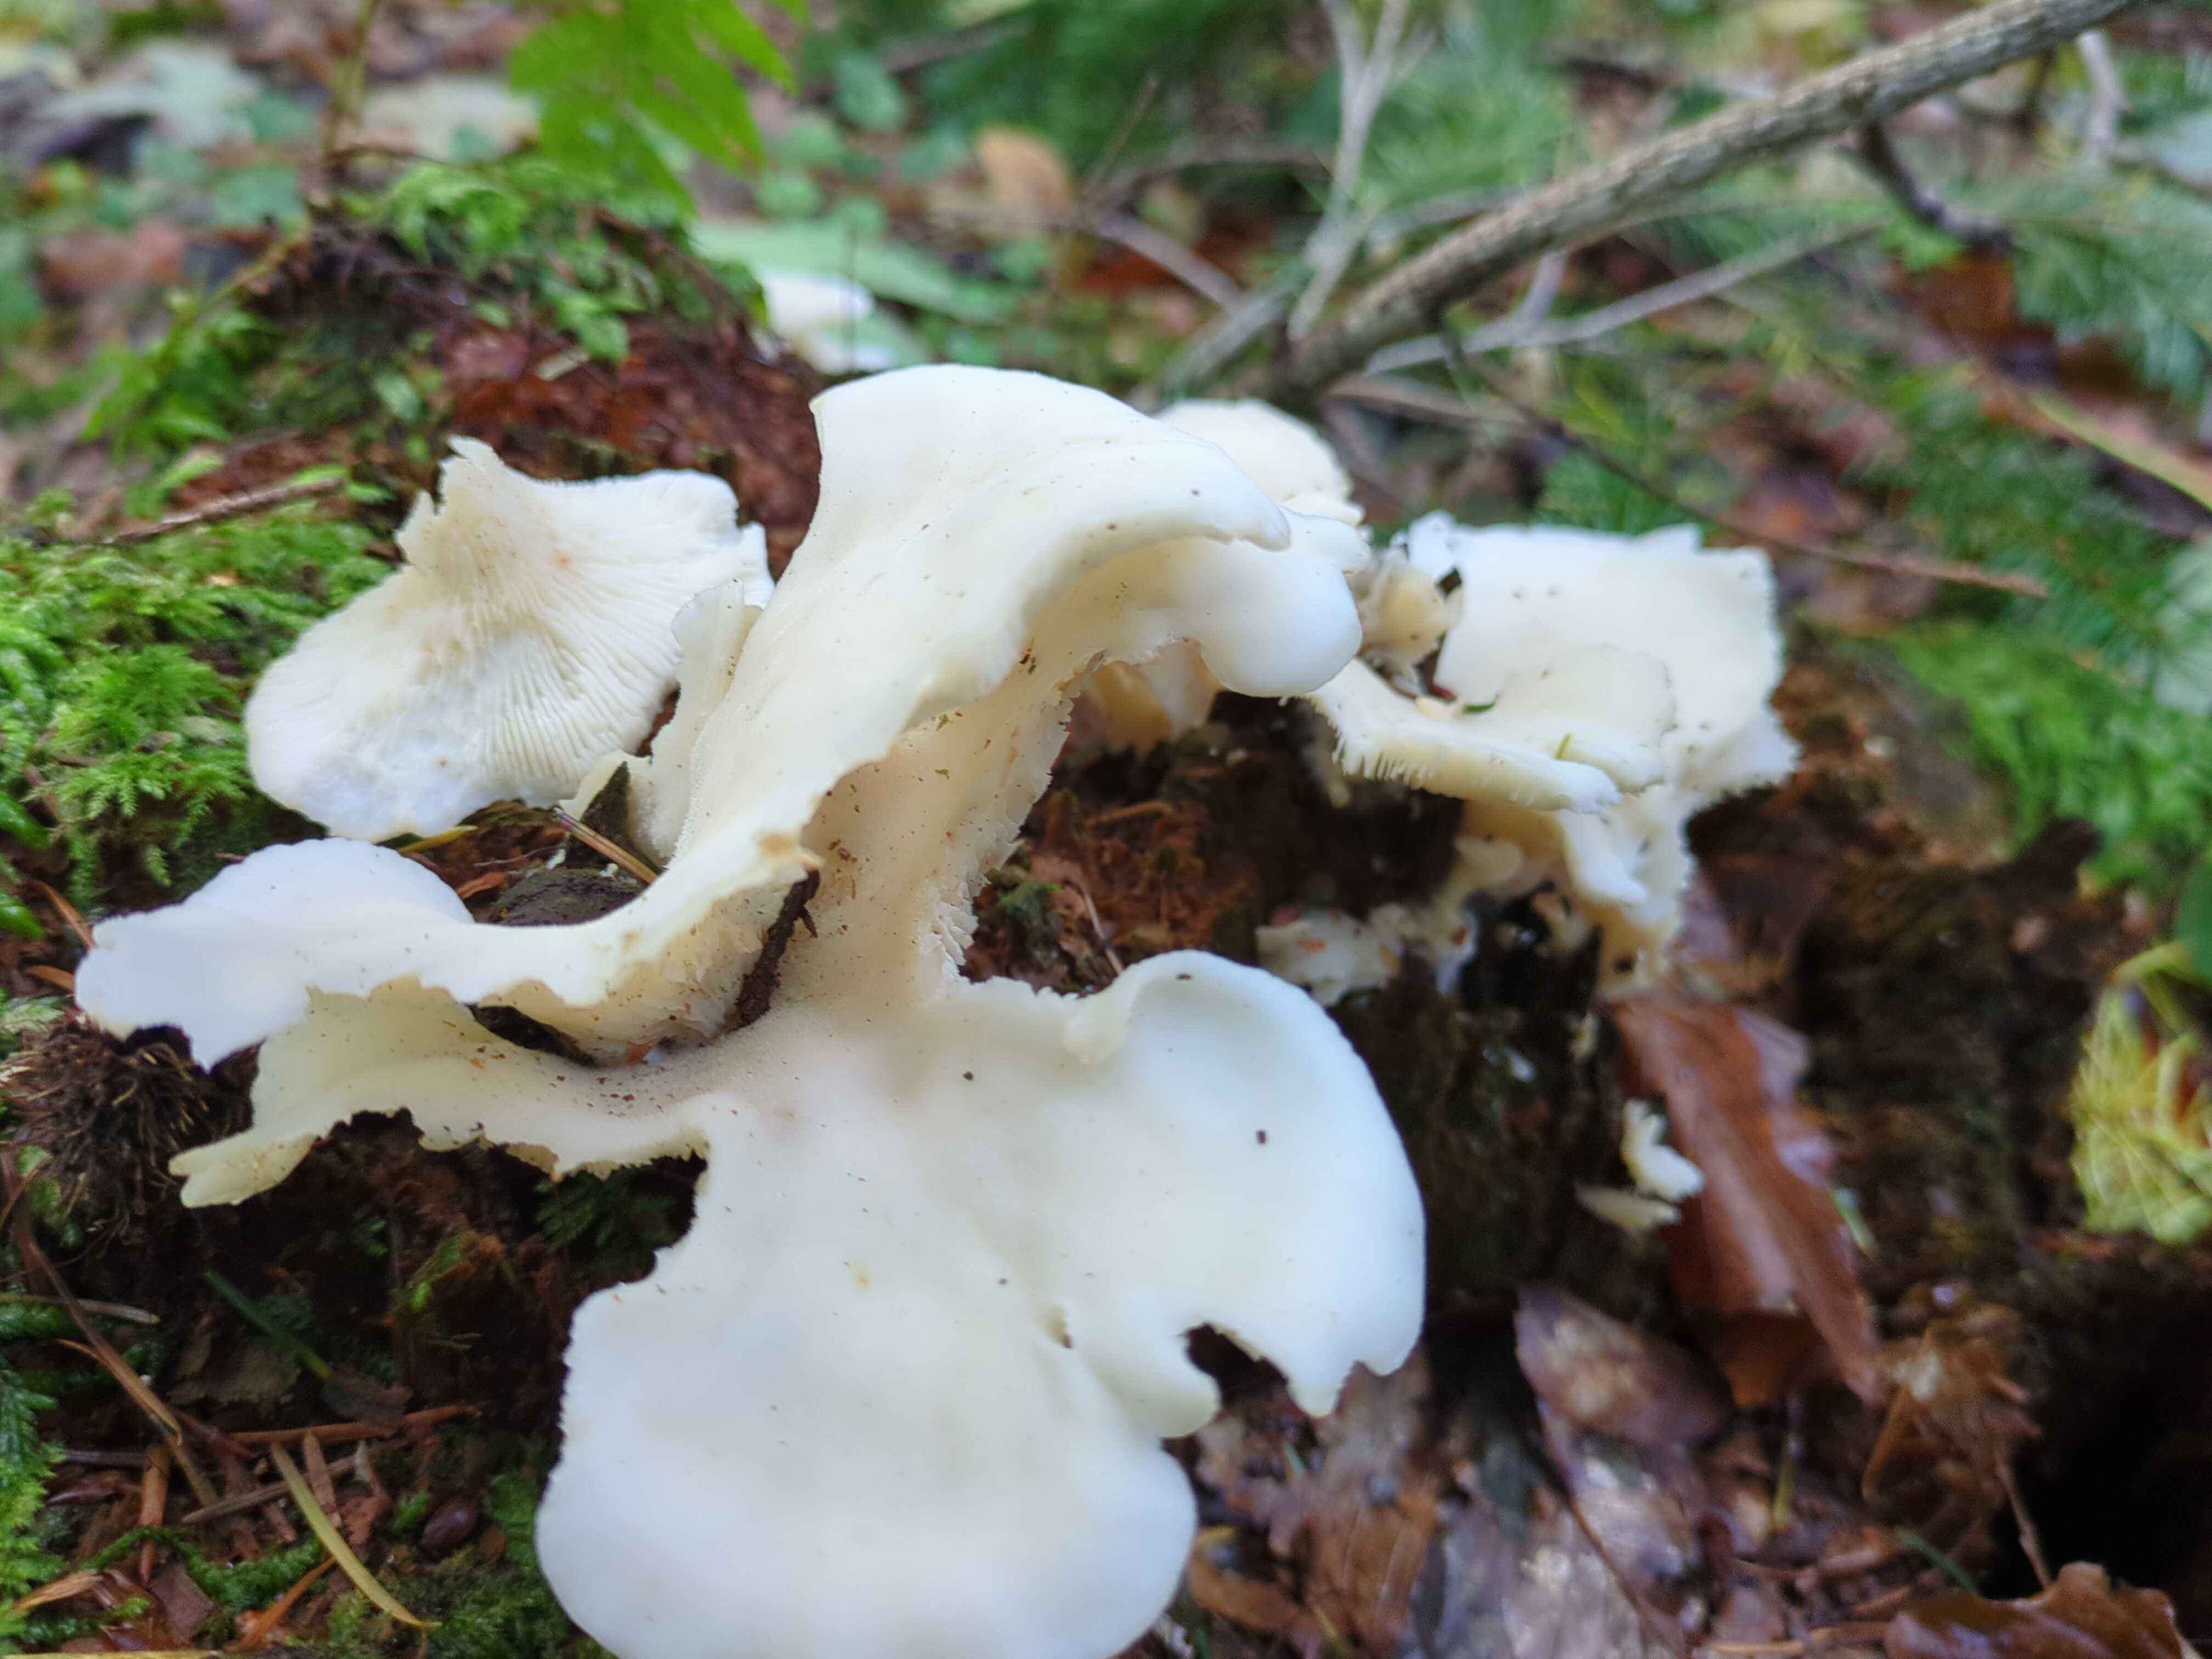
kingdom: Fungi
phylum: Basidiomycota
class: Agaricomycetes
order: Agaricales
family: Marasmiaceae
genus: Pleurocybella
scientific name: Pleurocybella porrigens
